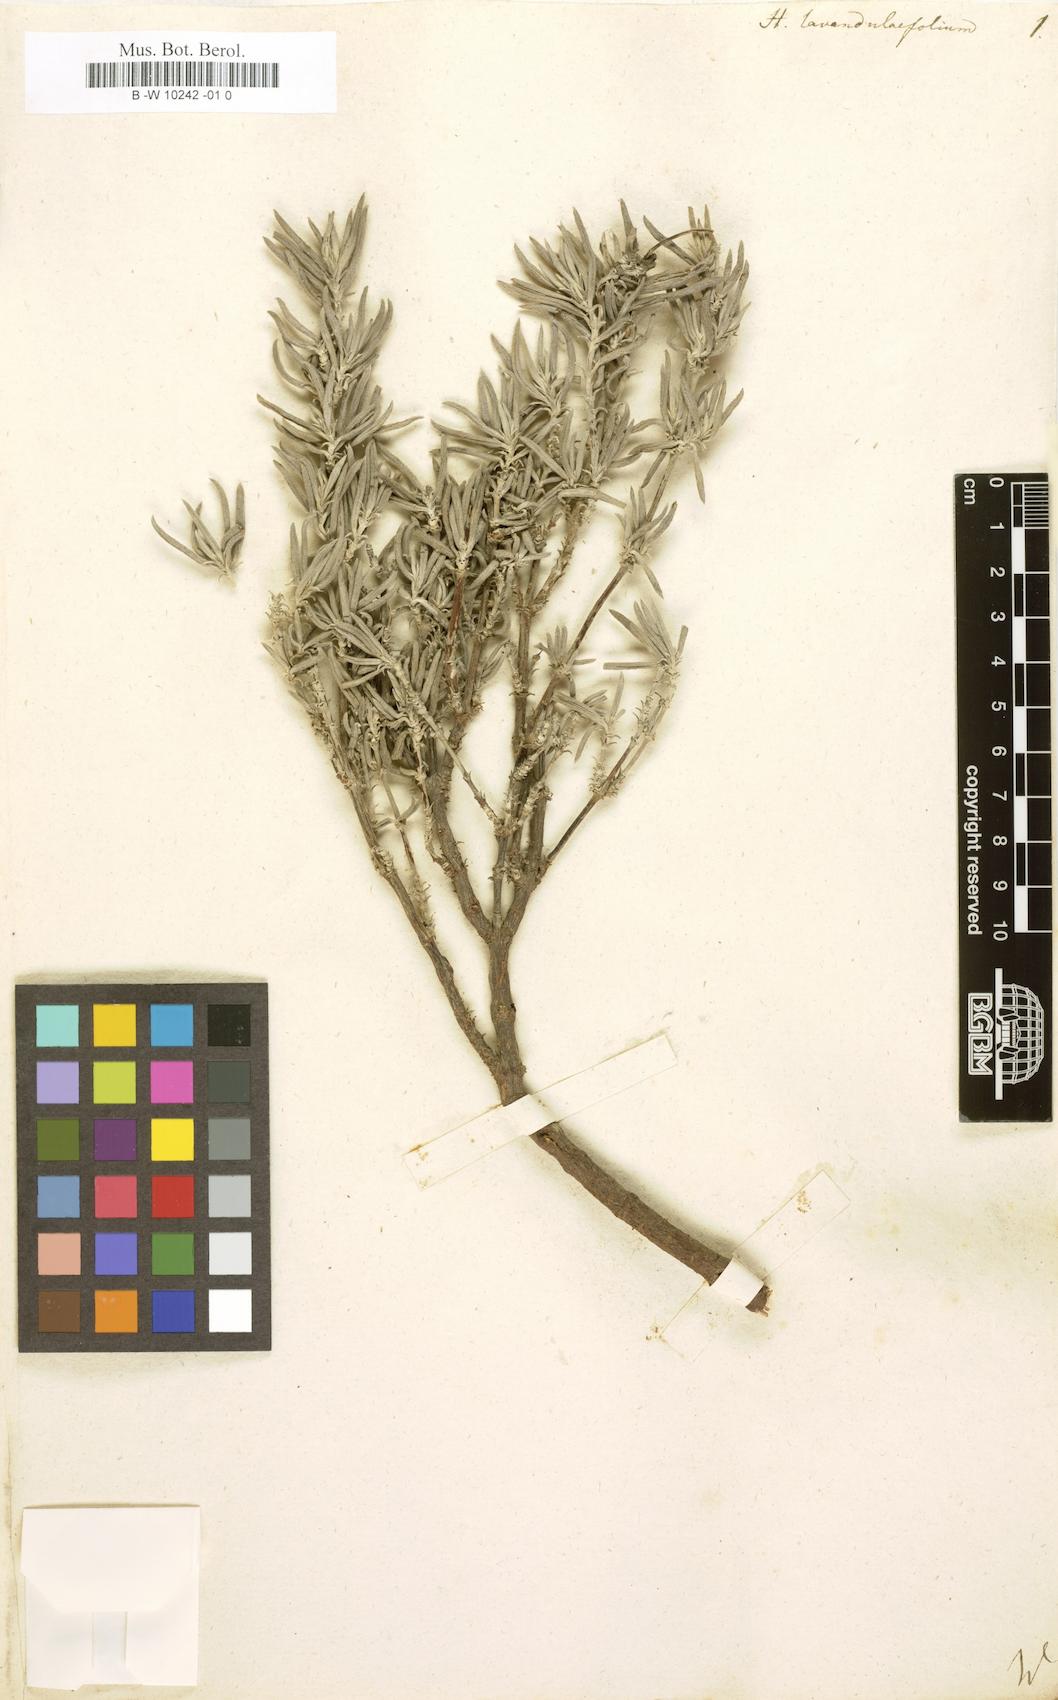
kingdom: Plantae
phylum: Tracheophyta
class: Magnoliopsida
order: Malvales
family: Cistaceae
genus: Helianthemum
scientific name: Helianthemum
